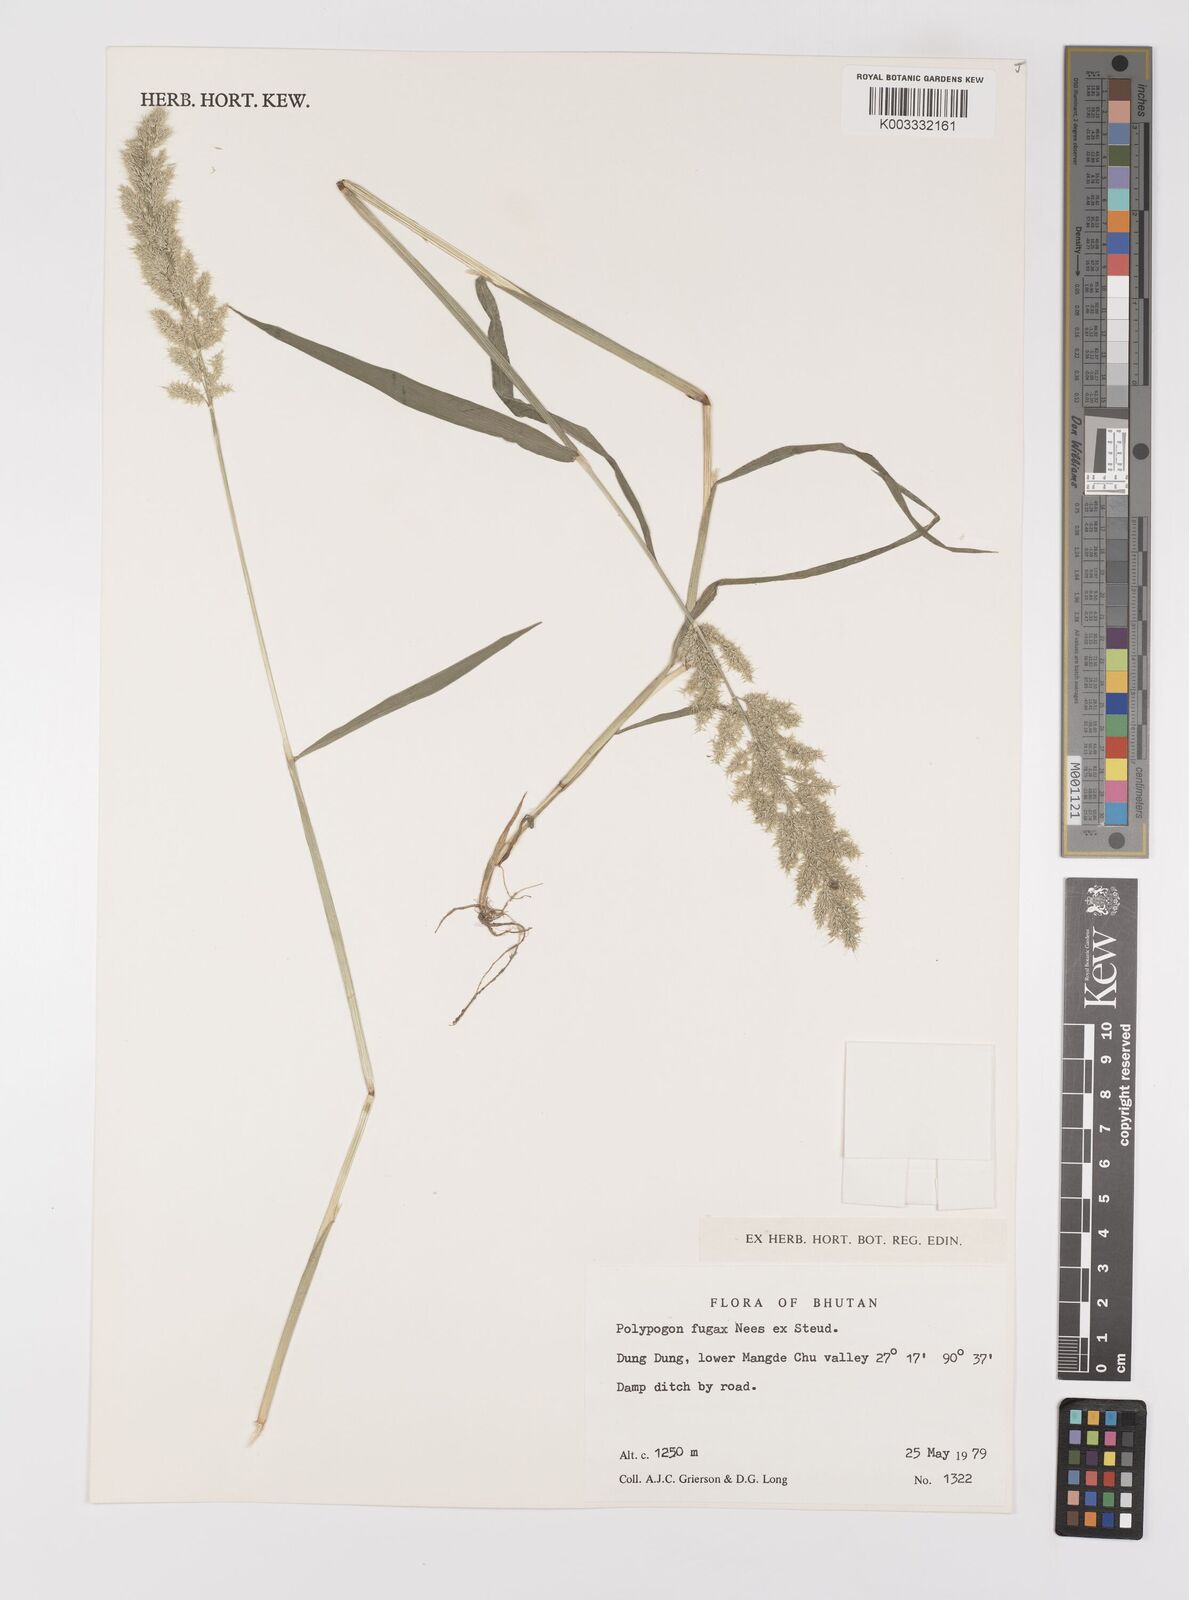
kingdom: Plantae
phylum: Tracheophyta
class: Liliopsida
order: Poales
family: Poaceae
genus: Polypogon
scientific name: Polypogon fugax
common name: Asia minor bluegrass
